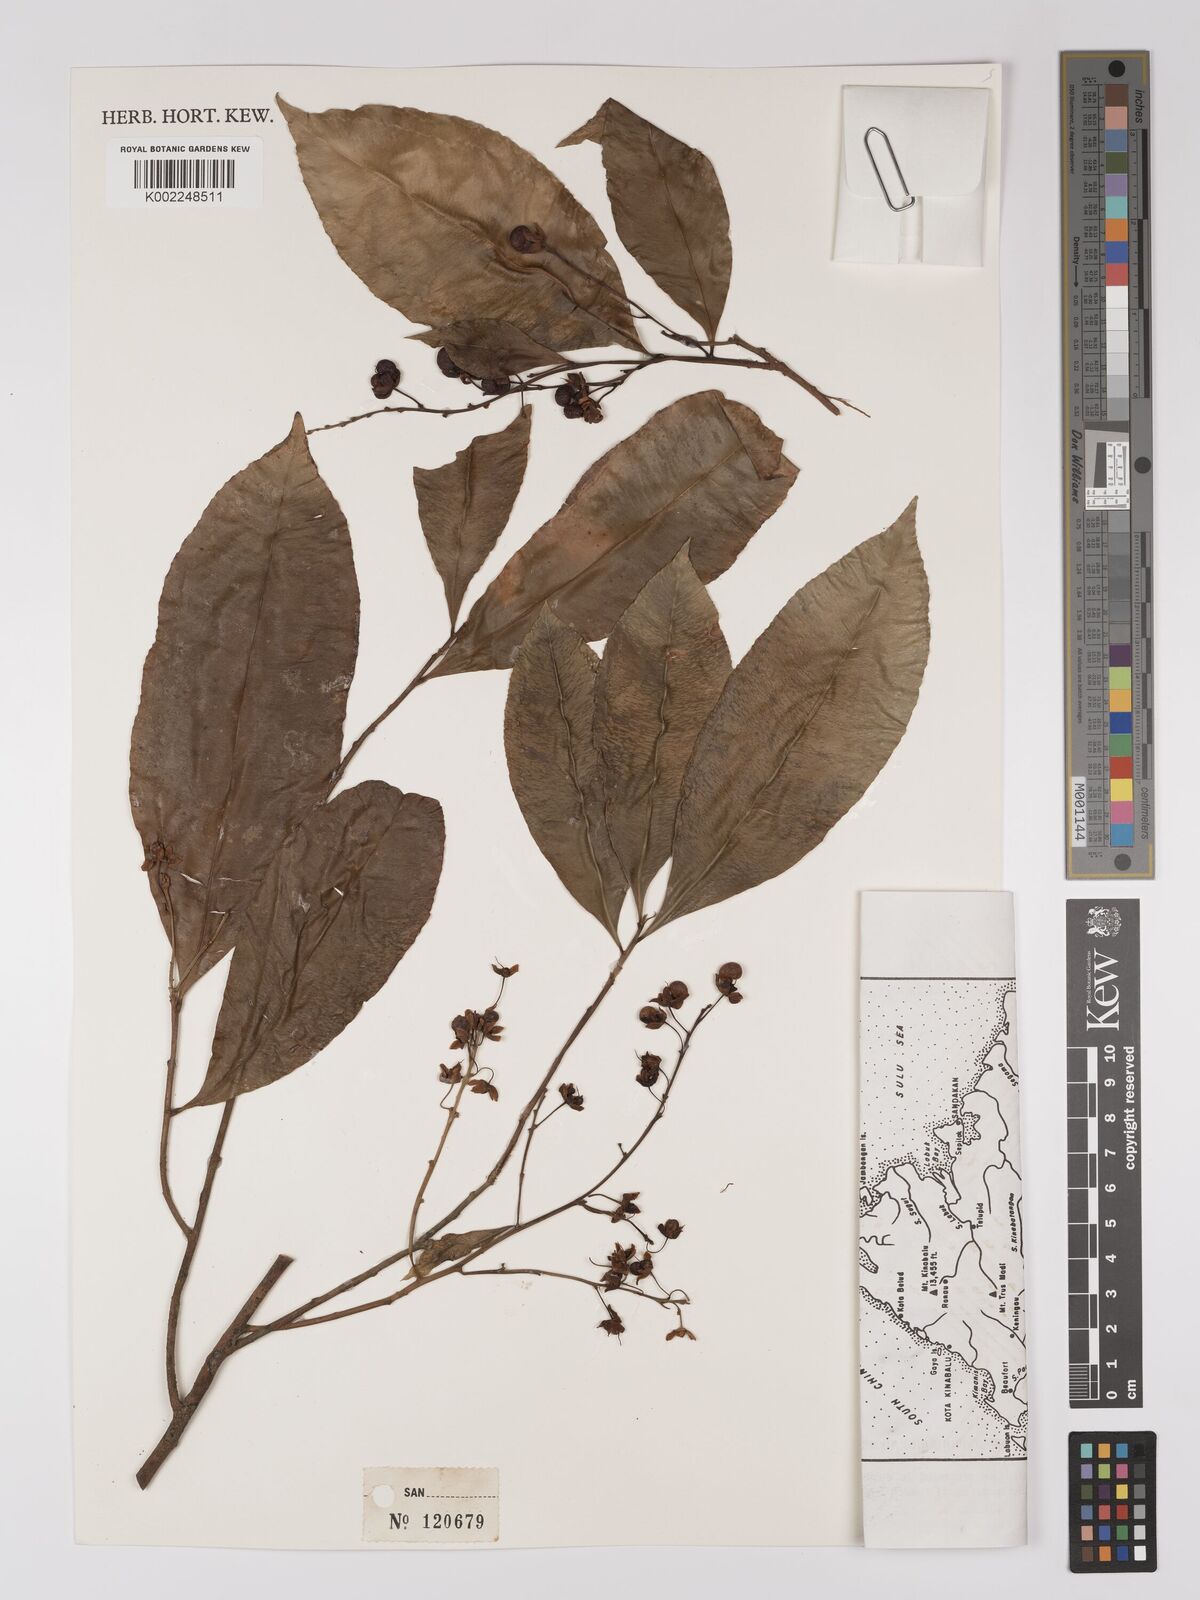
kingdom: Plantae
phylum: Tracheophyta
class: Magnoliopsida
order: Malpighiales
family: Ochnaceae
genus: Gomphia
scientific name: Gomphia serrata
